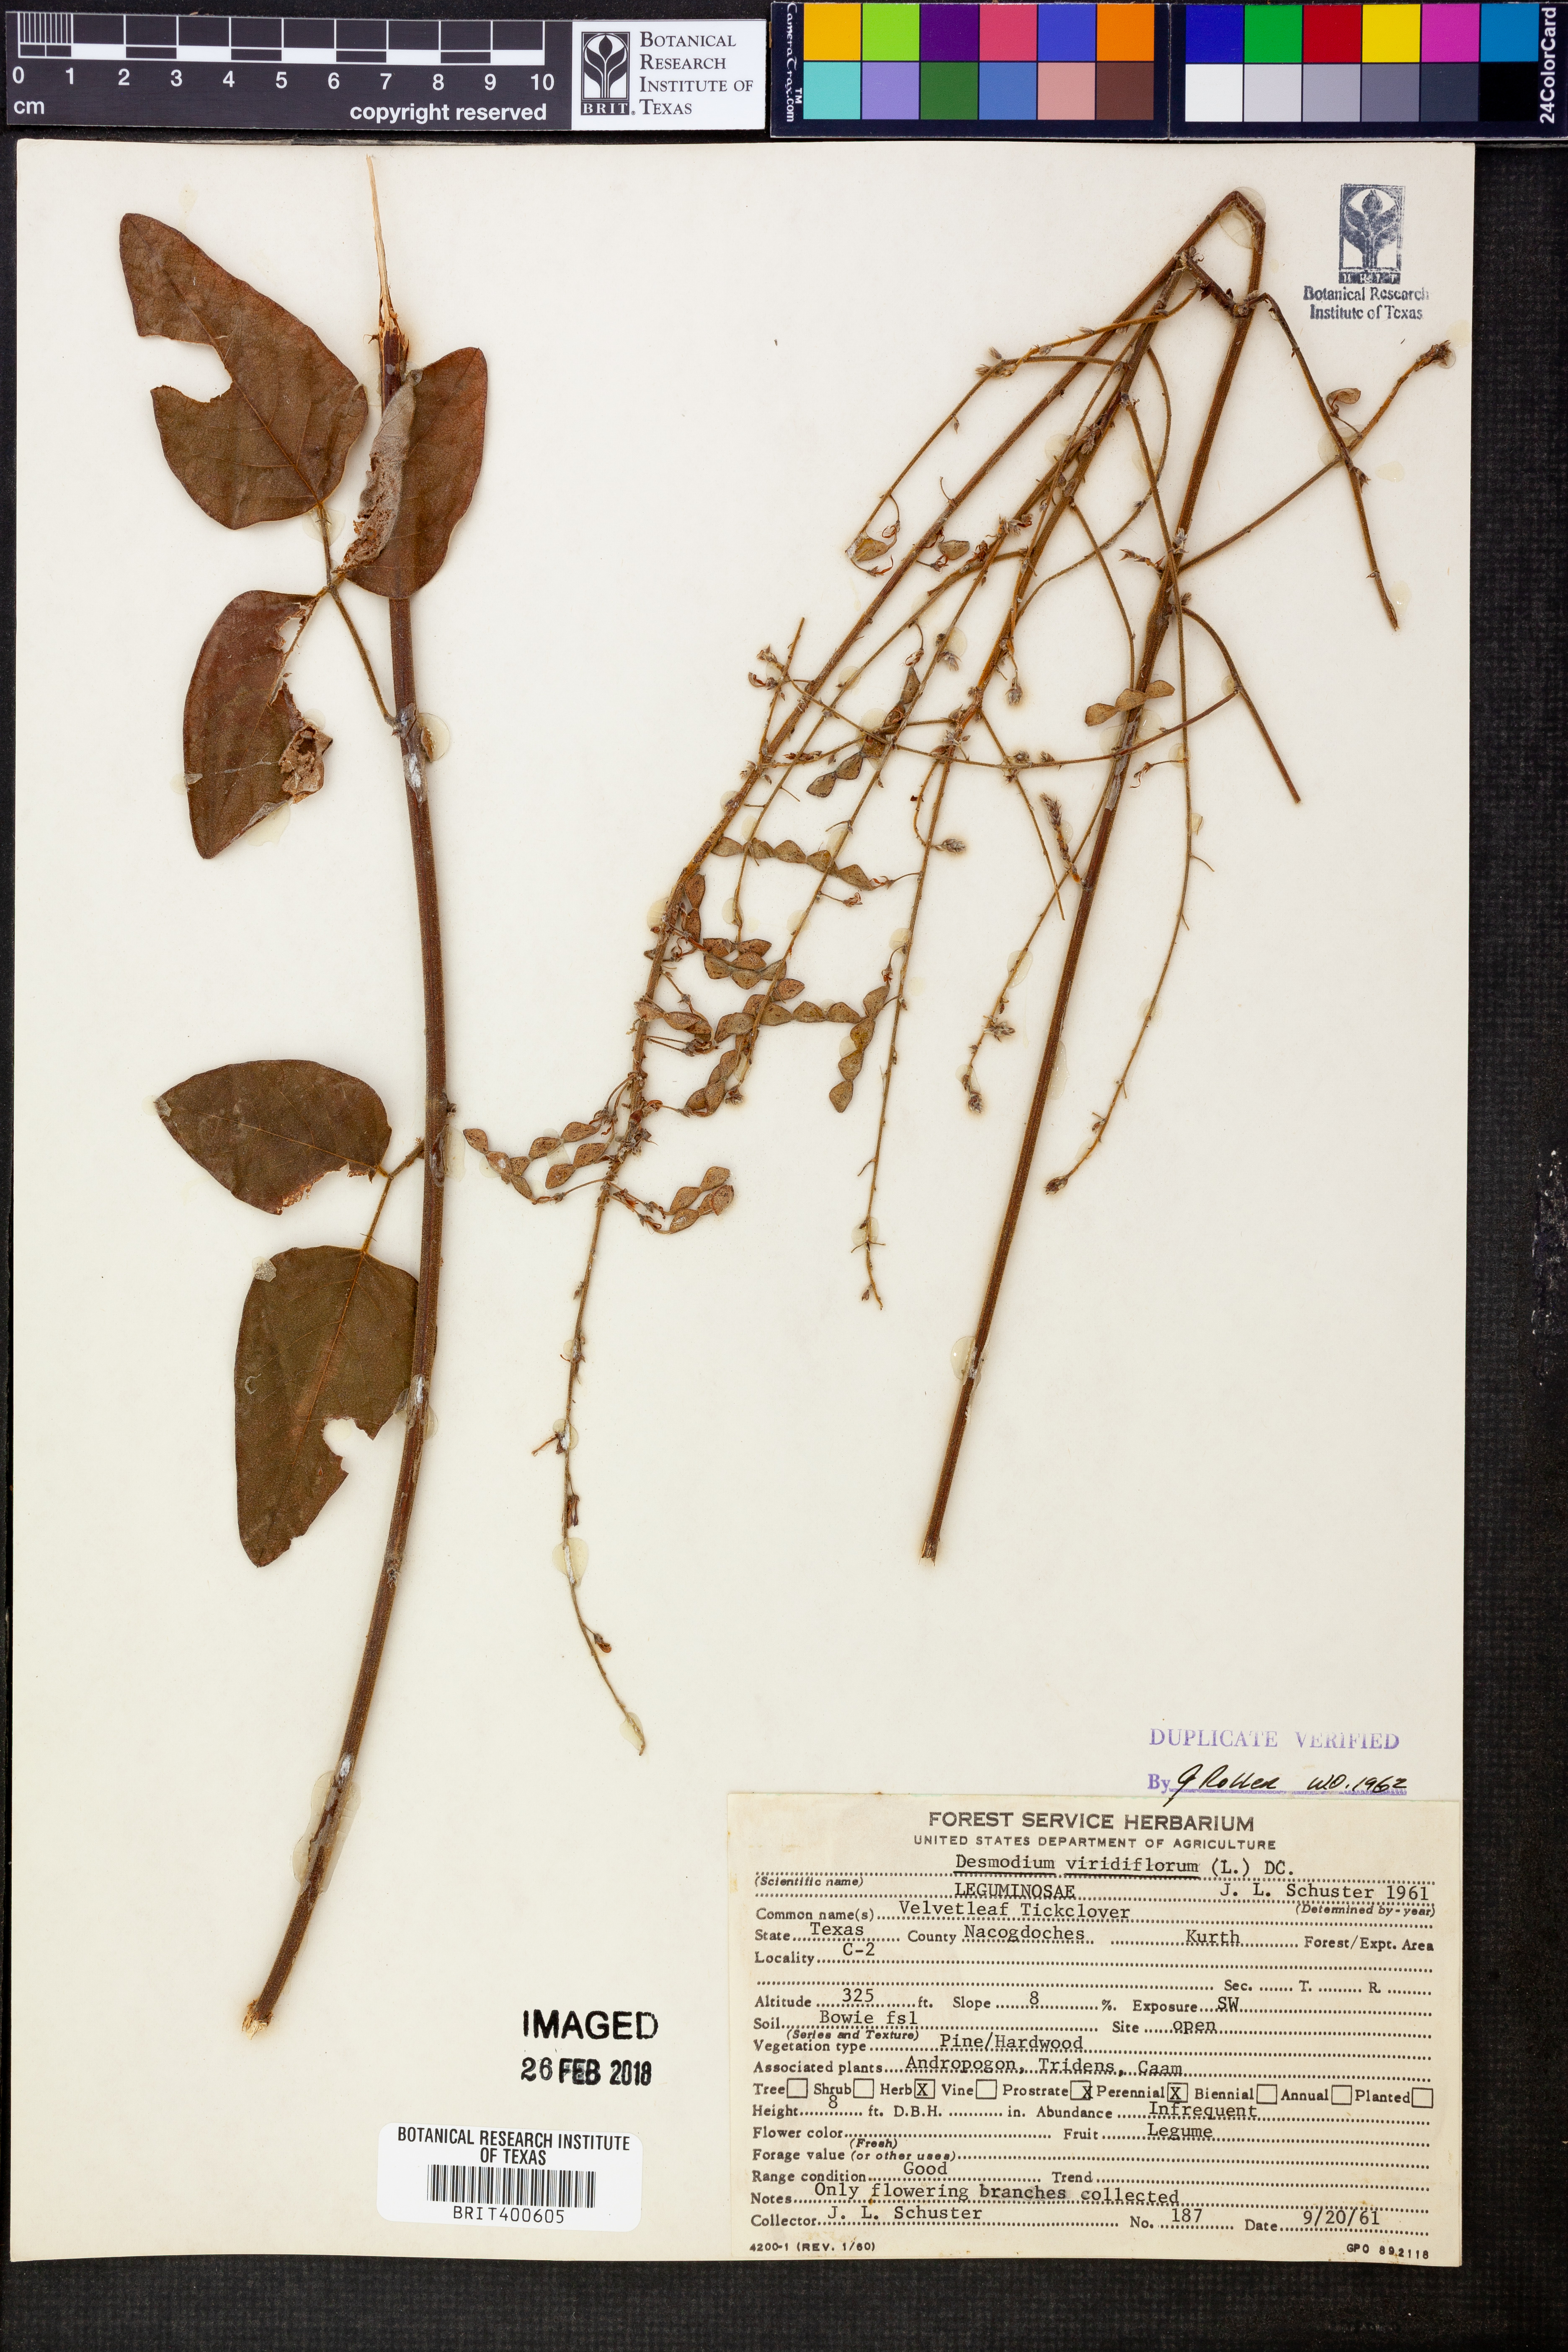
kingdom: Plantae
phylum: Tracheophyta
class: Magnoliopsida
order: Fabales
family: Fabaceae
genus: Desmodium
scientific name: Desmodium viridiflorum
